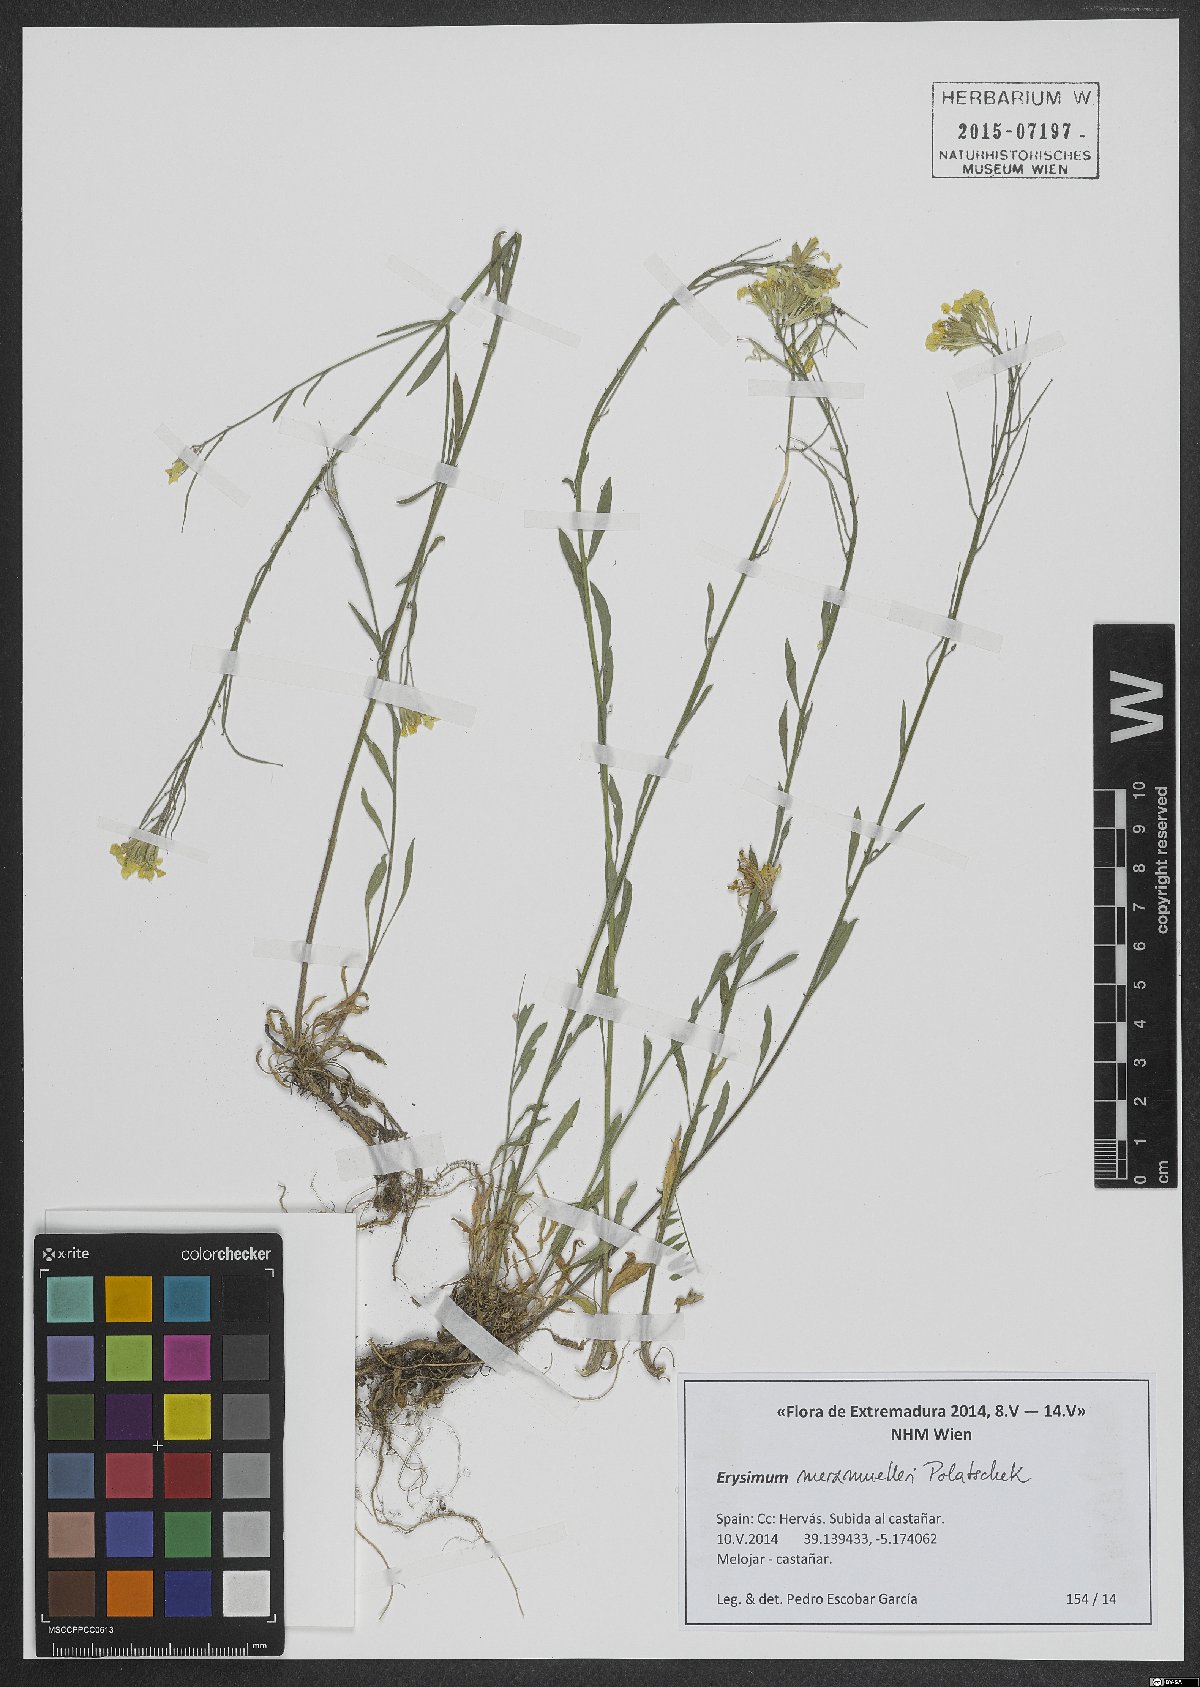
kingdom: Plantae
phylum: Tracheophyta
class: Magnoliopsida
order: Brassicales
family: Brassicaceae
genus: Erysimum
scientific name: Erysimum nevadense
